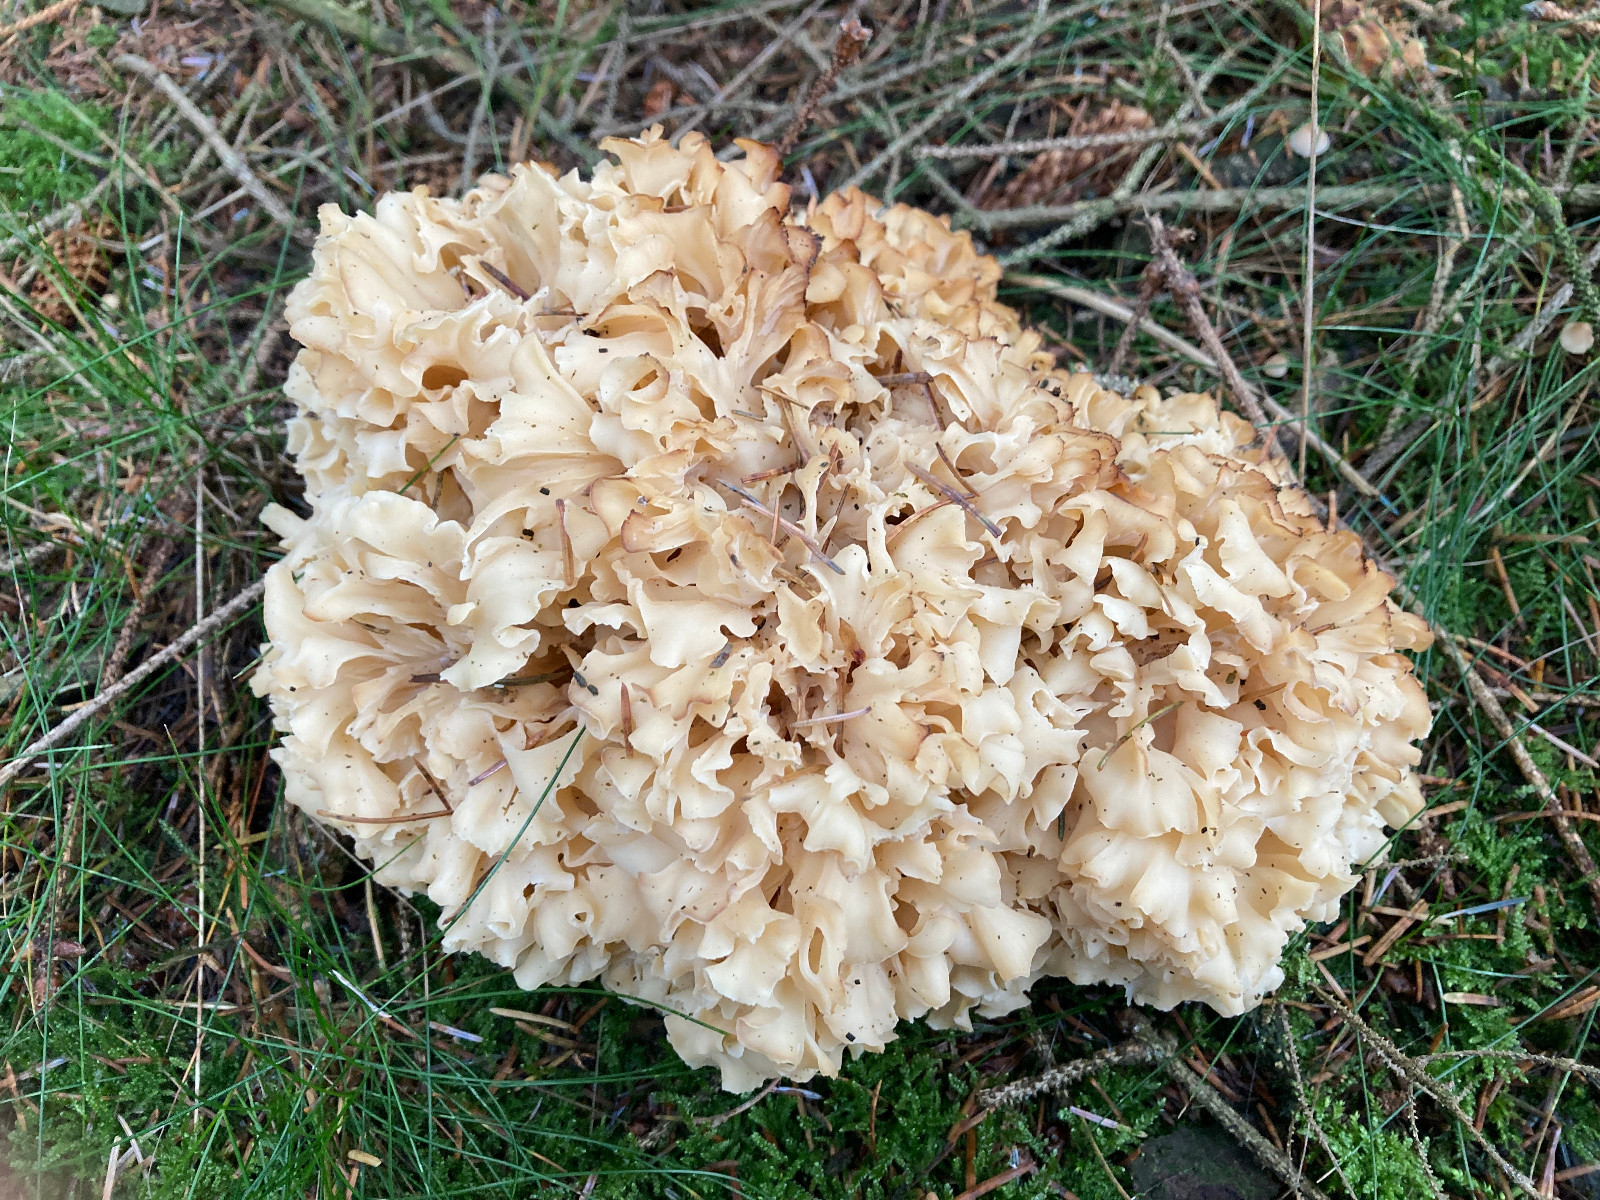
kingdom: Fungi
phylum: Basidiomycota
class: Agaricomycetes
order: Polyporales
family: Sparassidaceae
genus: Sparassis
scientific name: Sparassis crispa
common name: kruset blomkålssvamp
